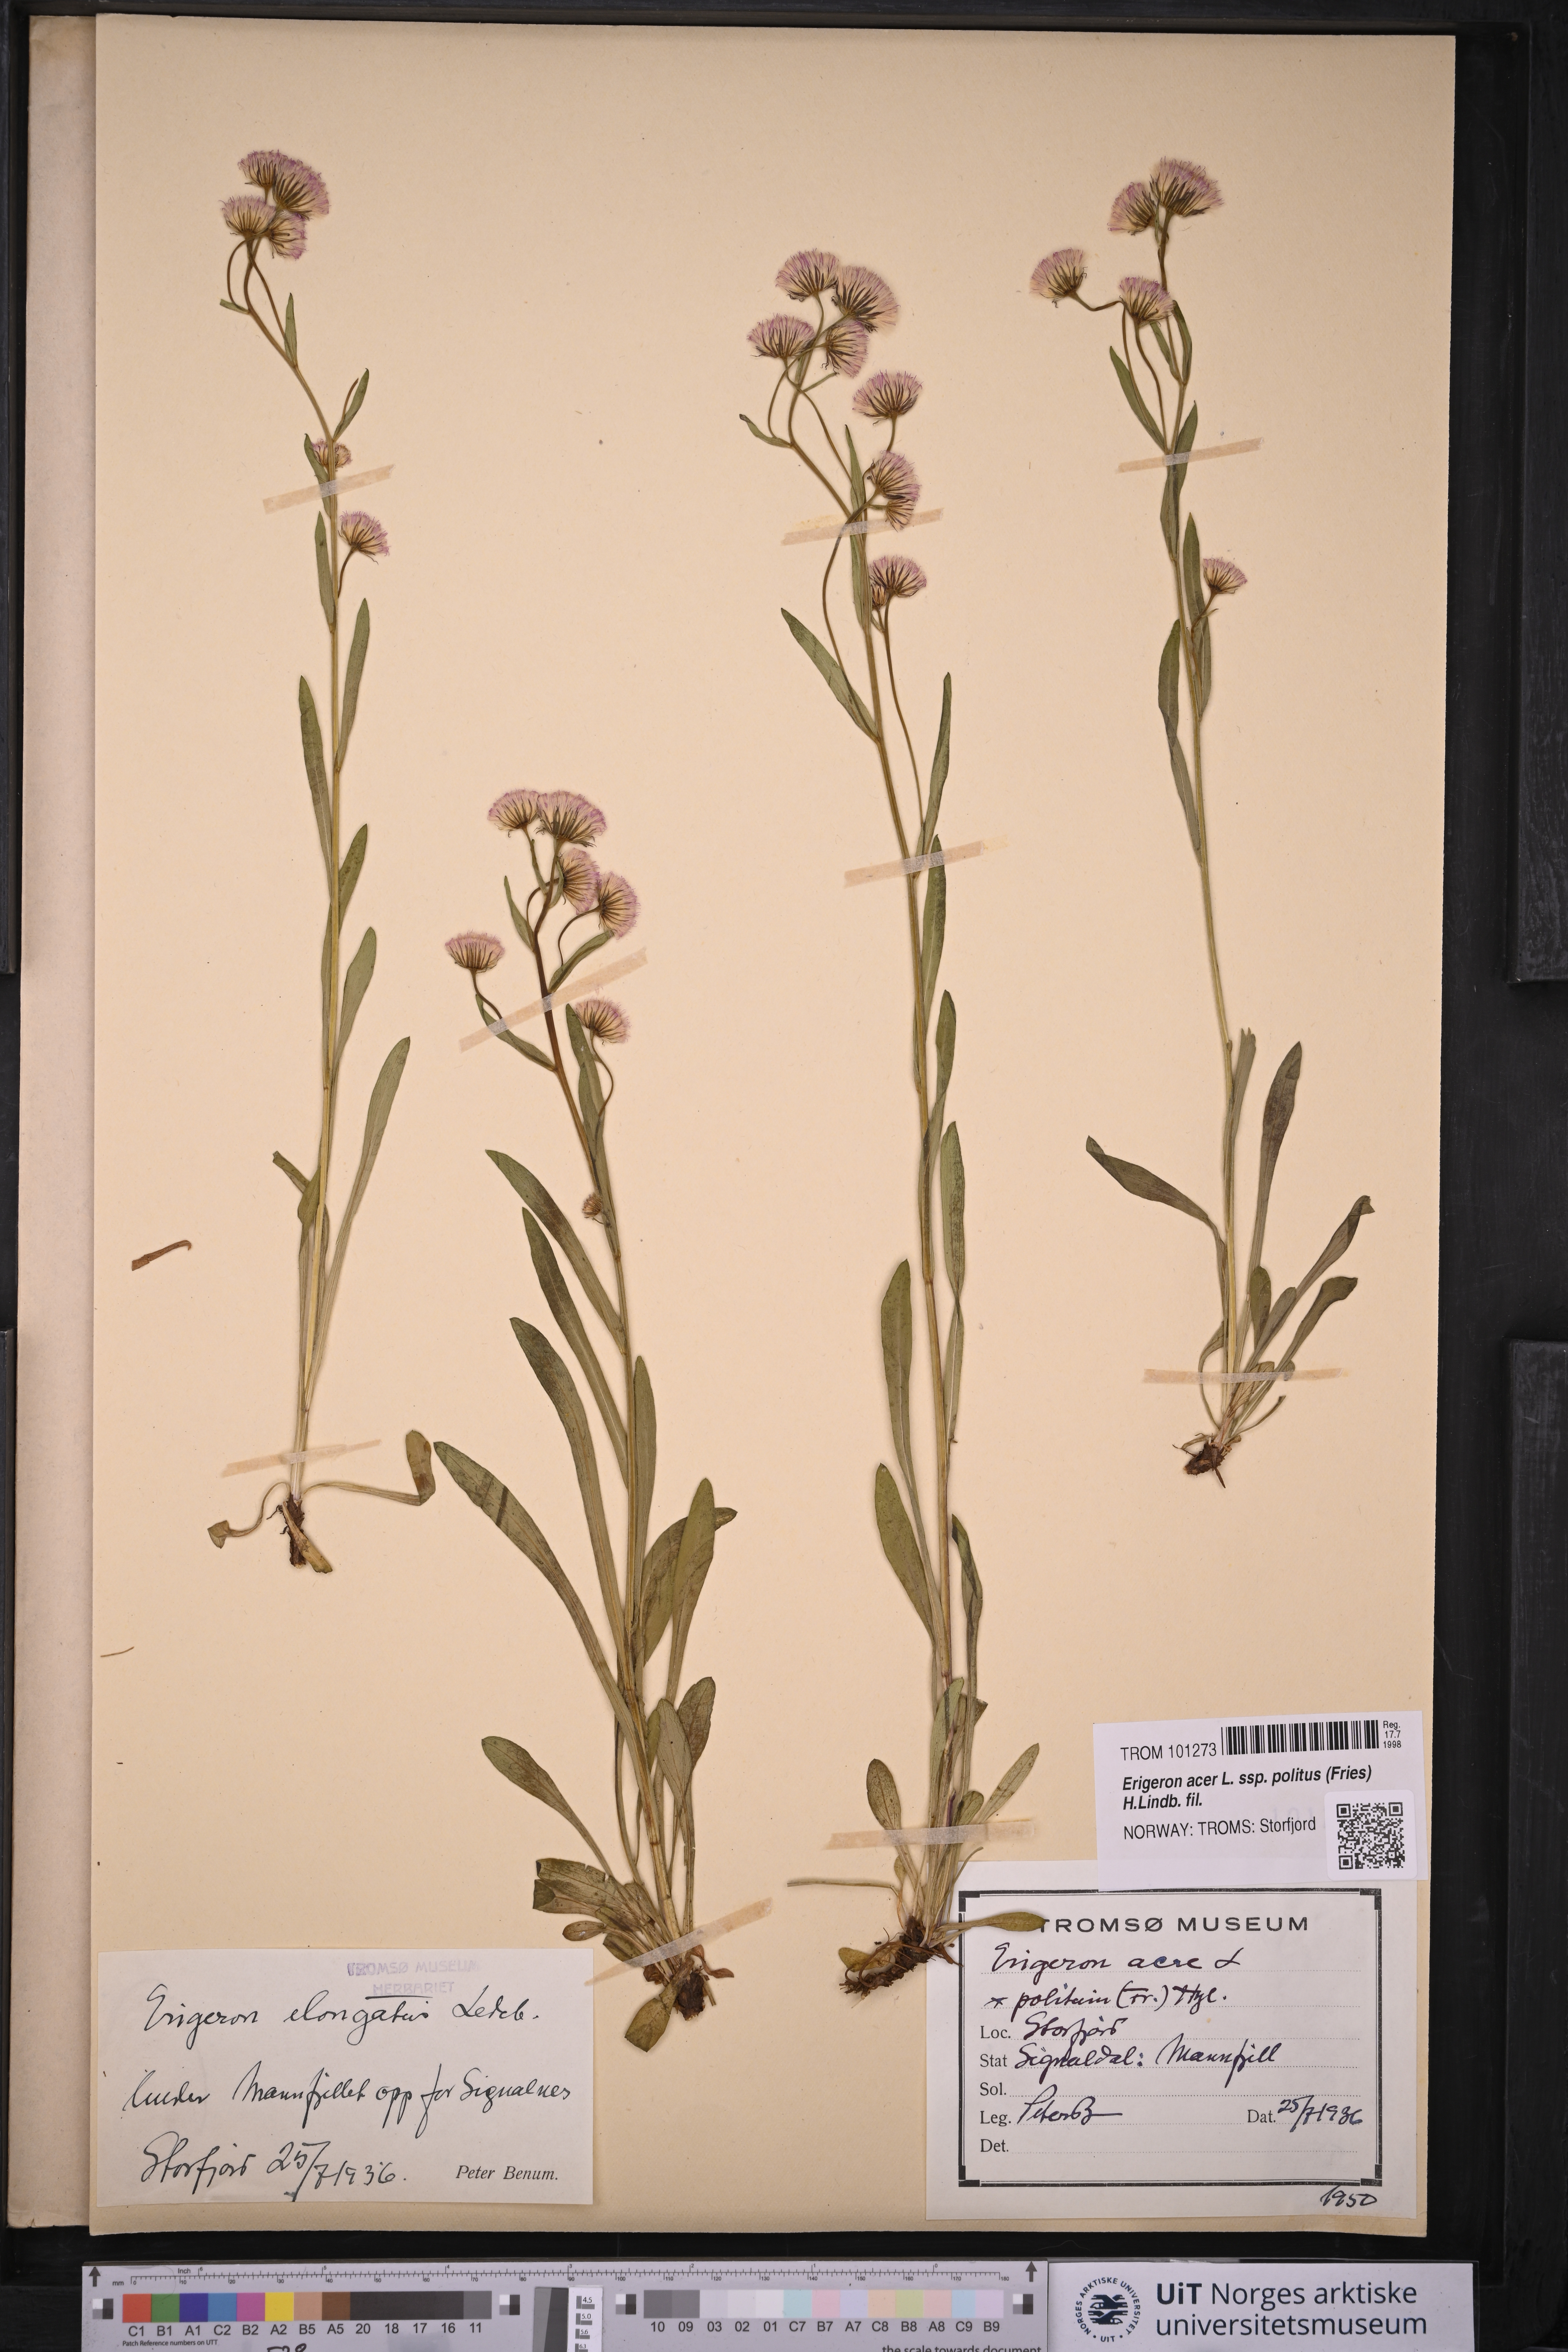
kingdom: Plantae
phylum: Tracheophyta
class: Magnoliopsida
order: Asterales
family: Asteraceae
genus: Erigeron
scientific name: Erigeron politus
